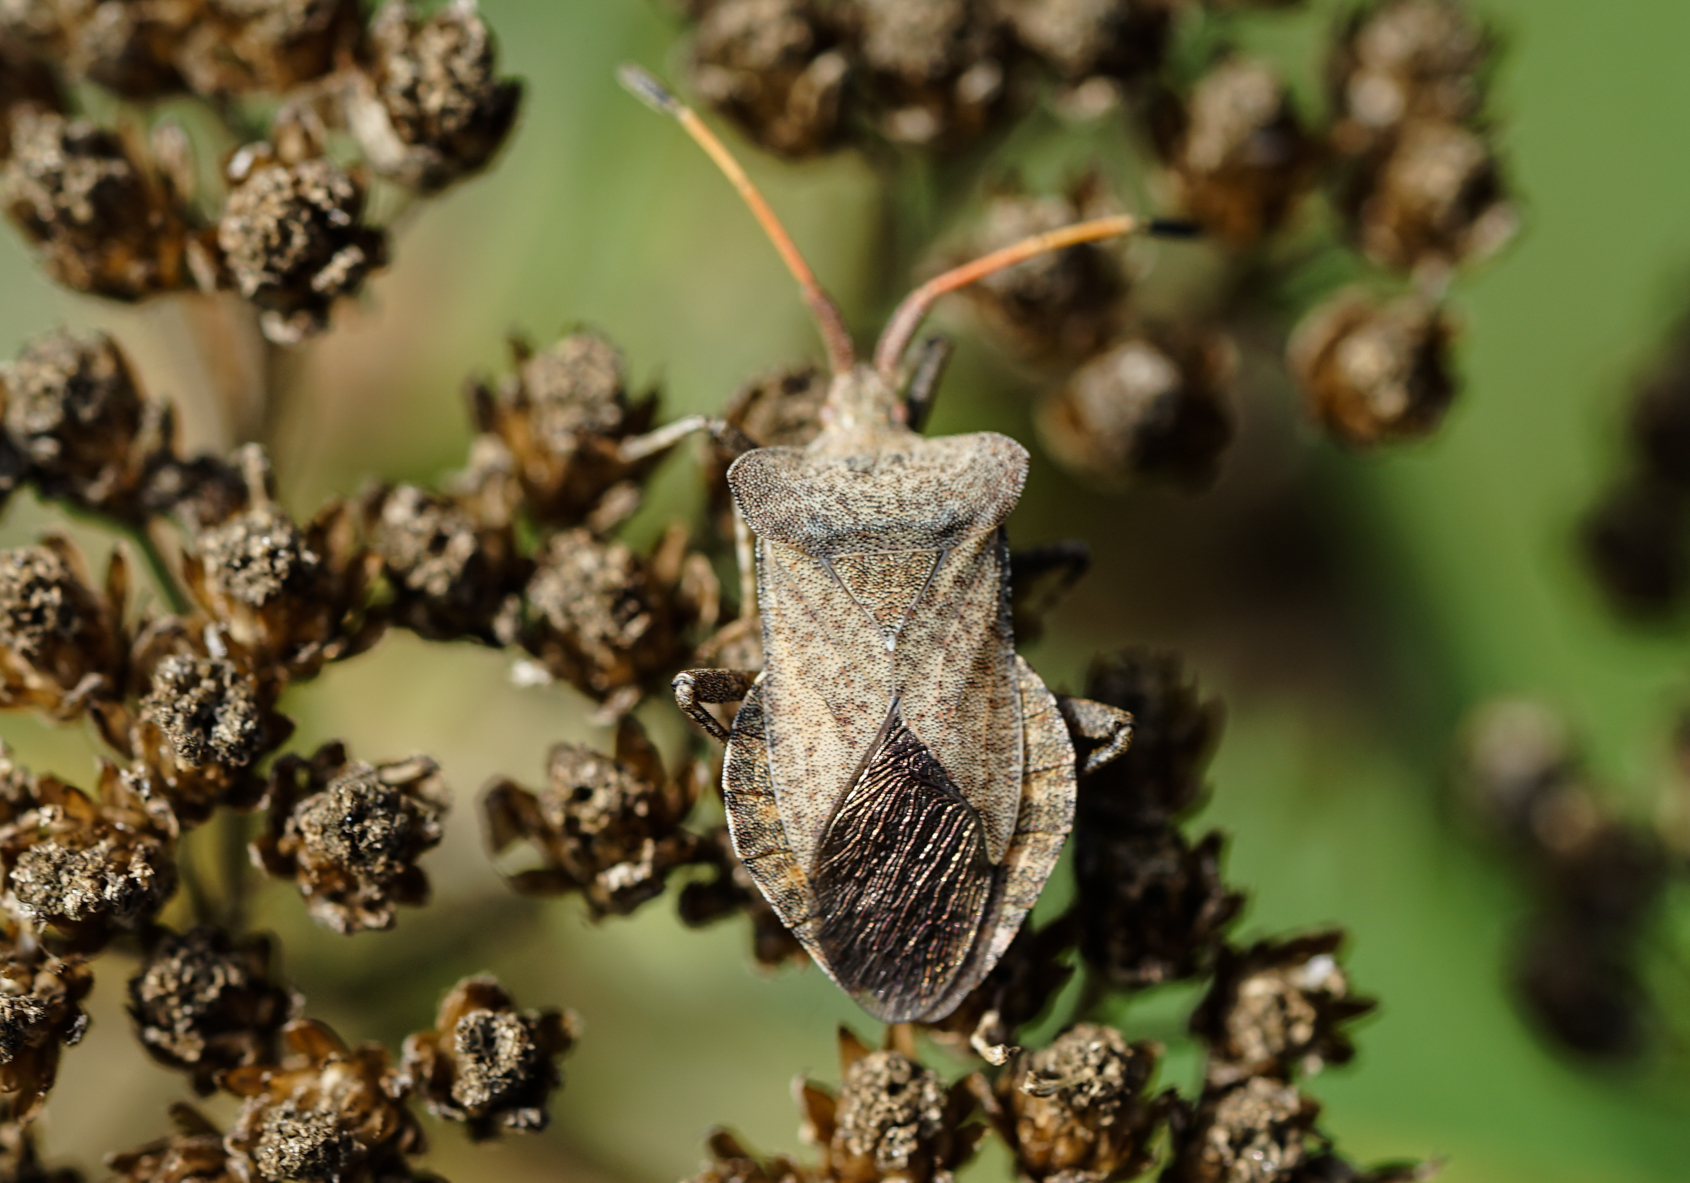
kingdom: Animalia
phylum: Arthropoda
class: Insecta
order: Hemiptera
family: Coreidae
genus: Coreus
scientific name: Coreus marginatus
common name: Dock bug
